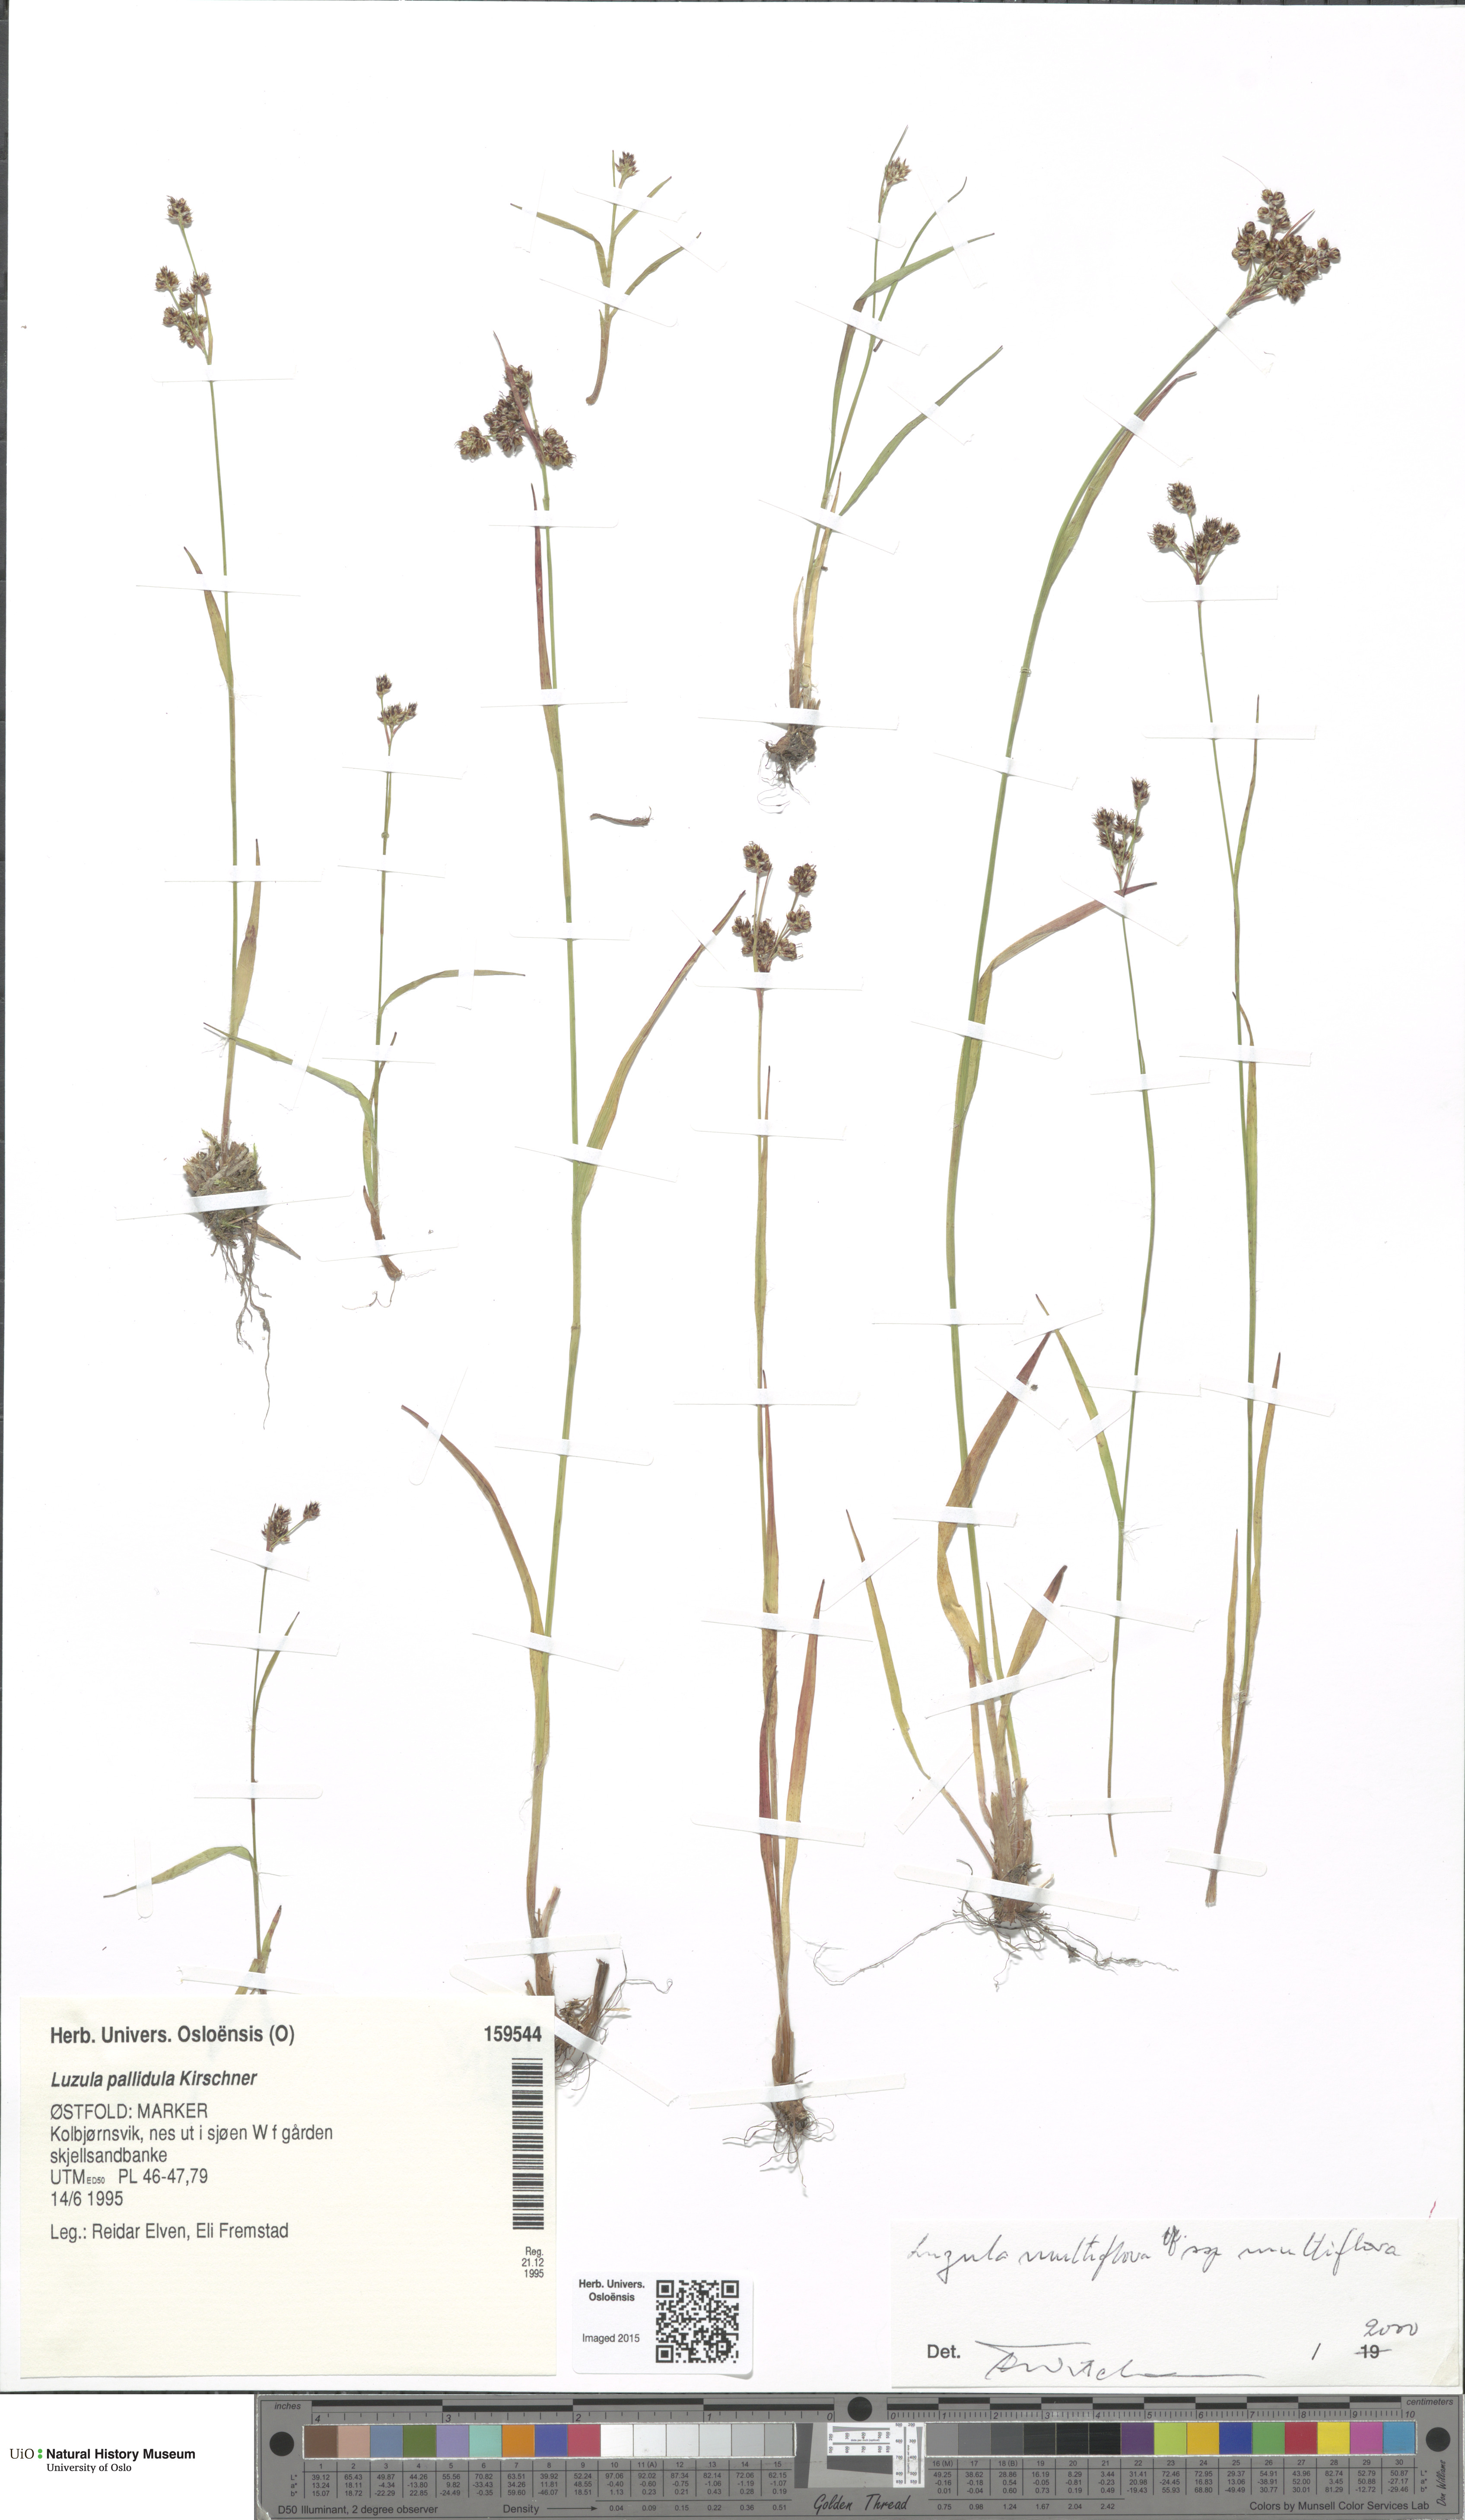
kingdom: Plantae
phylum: Tracheophyta
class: Liliopsida
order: Poales
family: Juncaceae
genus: Luzula
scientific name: Luzula multiflora
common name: Heath wood-rush
